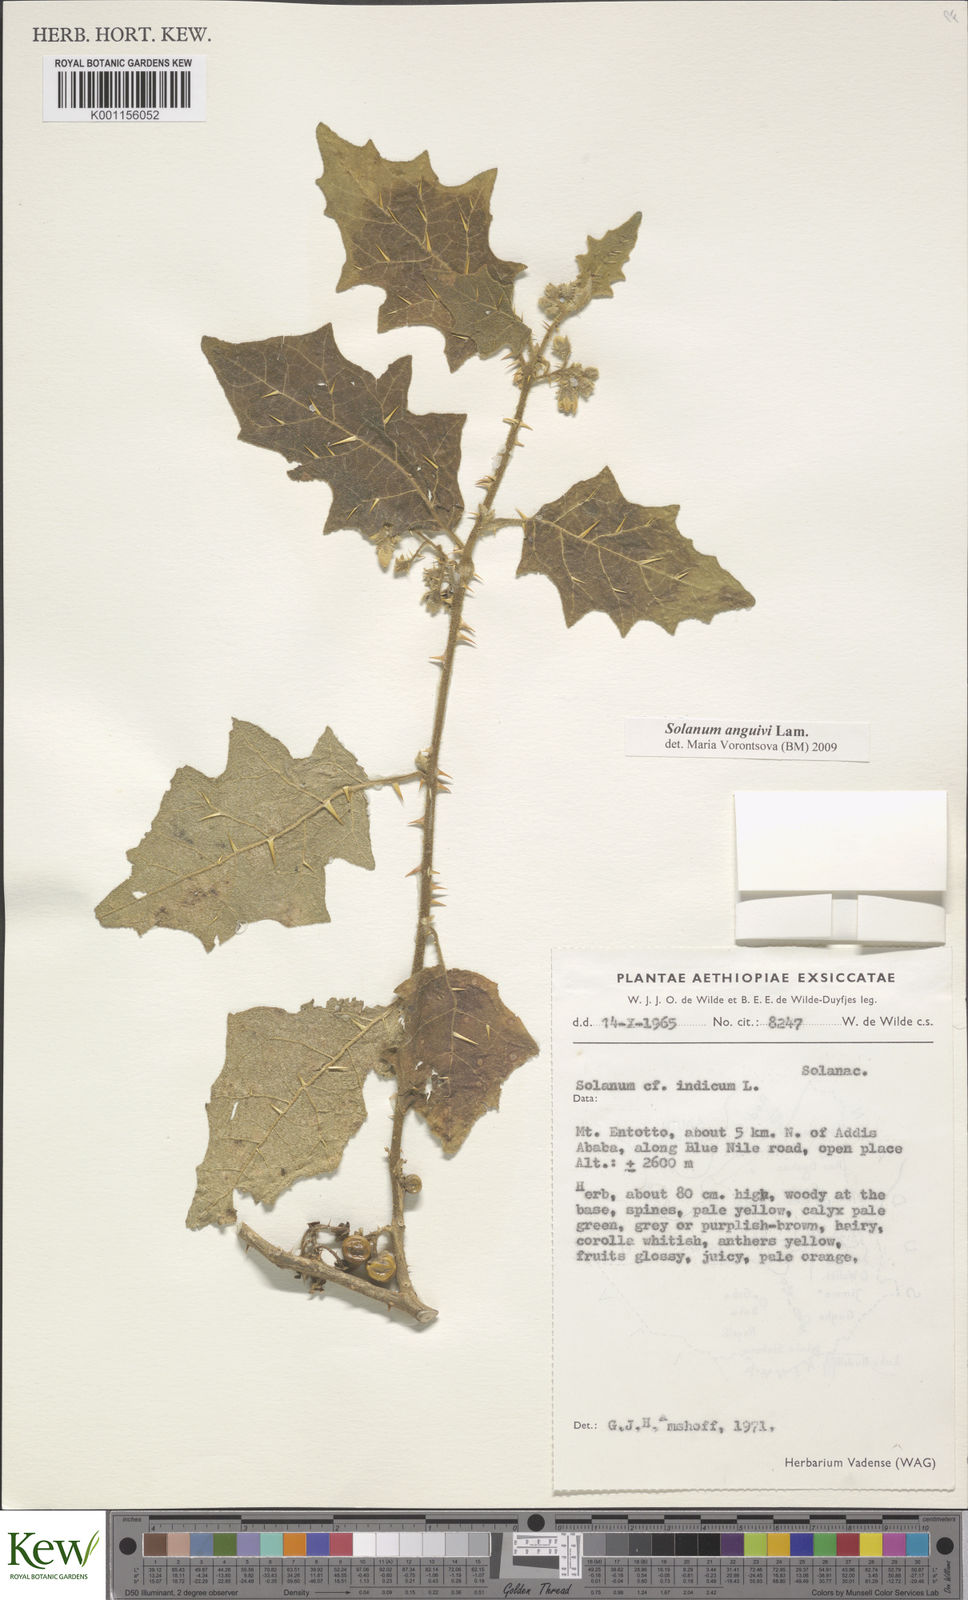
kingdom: Plantae
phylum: Tracheophyta
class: Magnoliopsida
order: Solanales
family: Solanaceae
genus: Solanum
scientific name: Solanum anguivi
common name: Forest bitterberry
